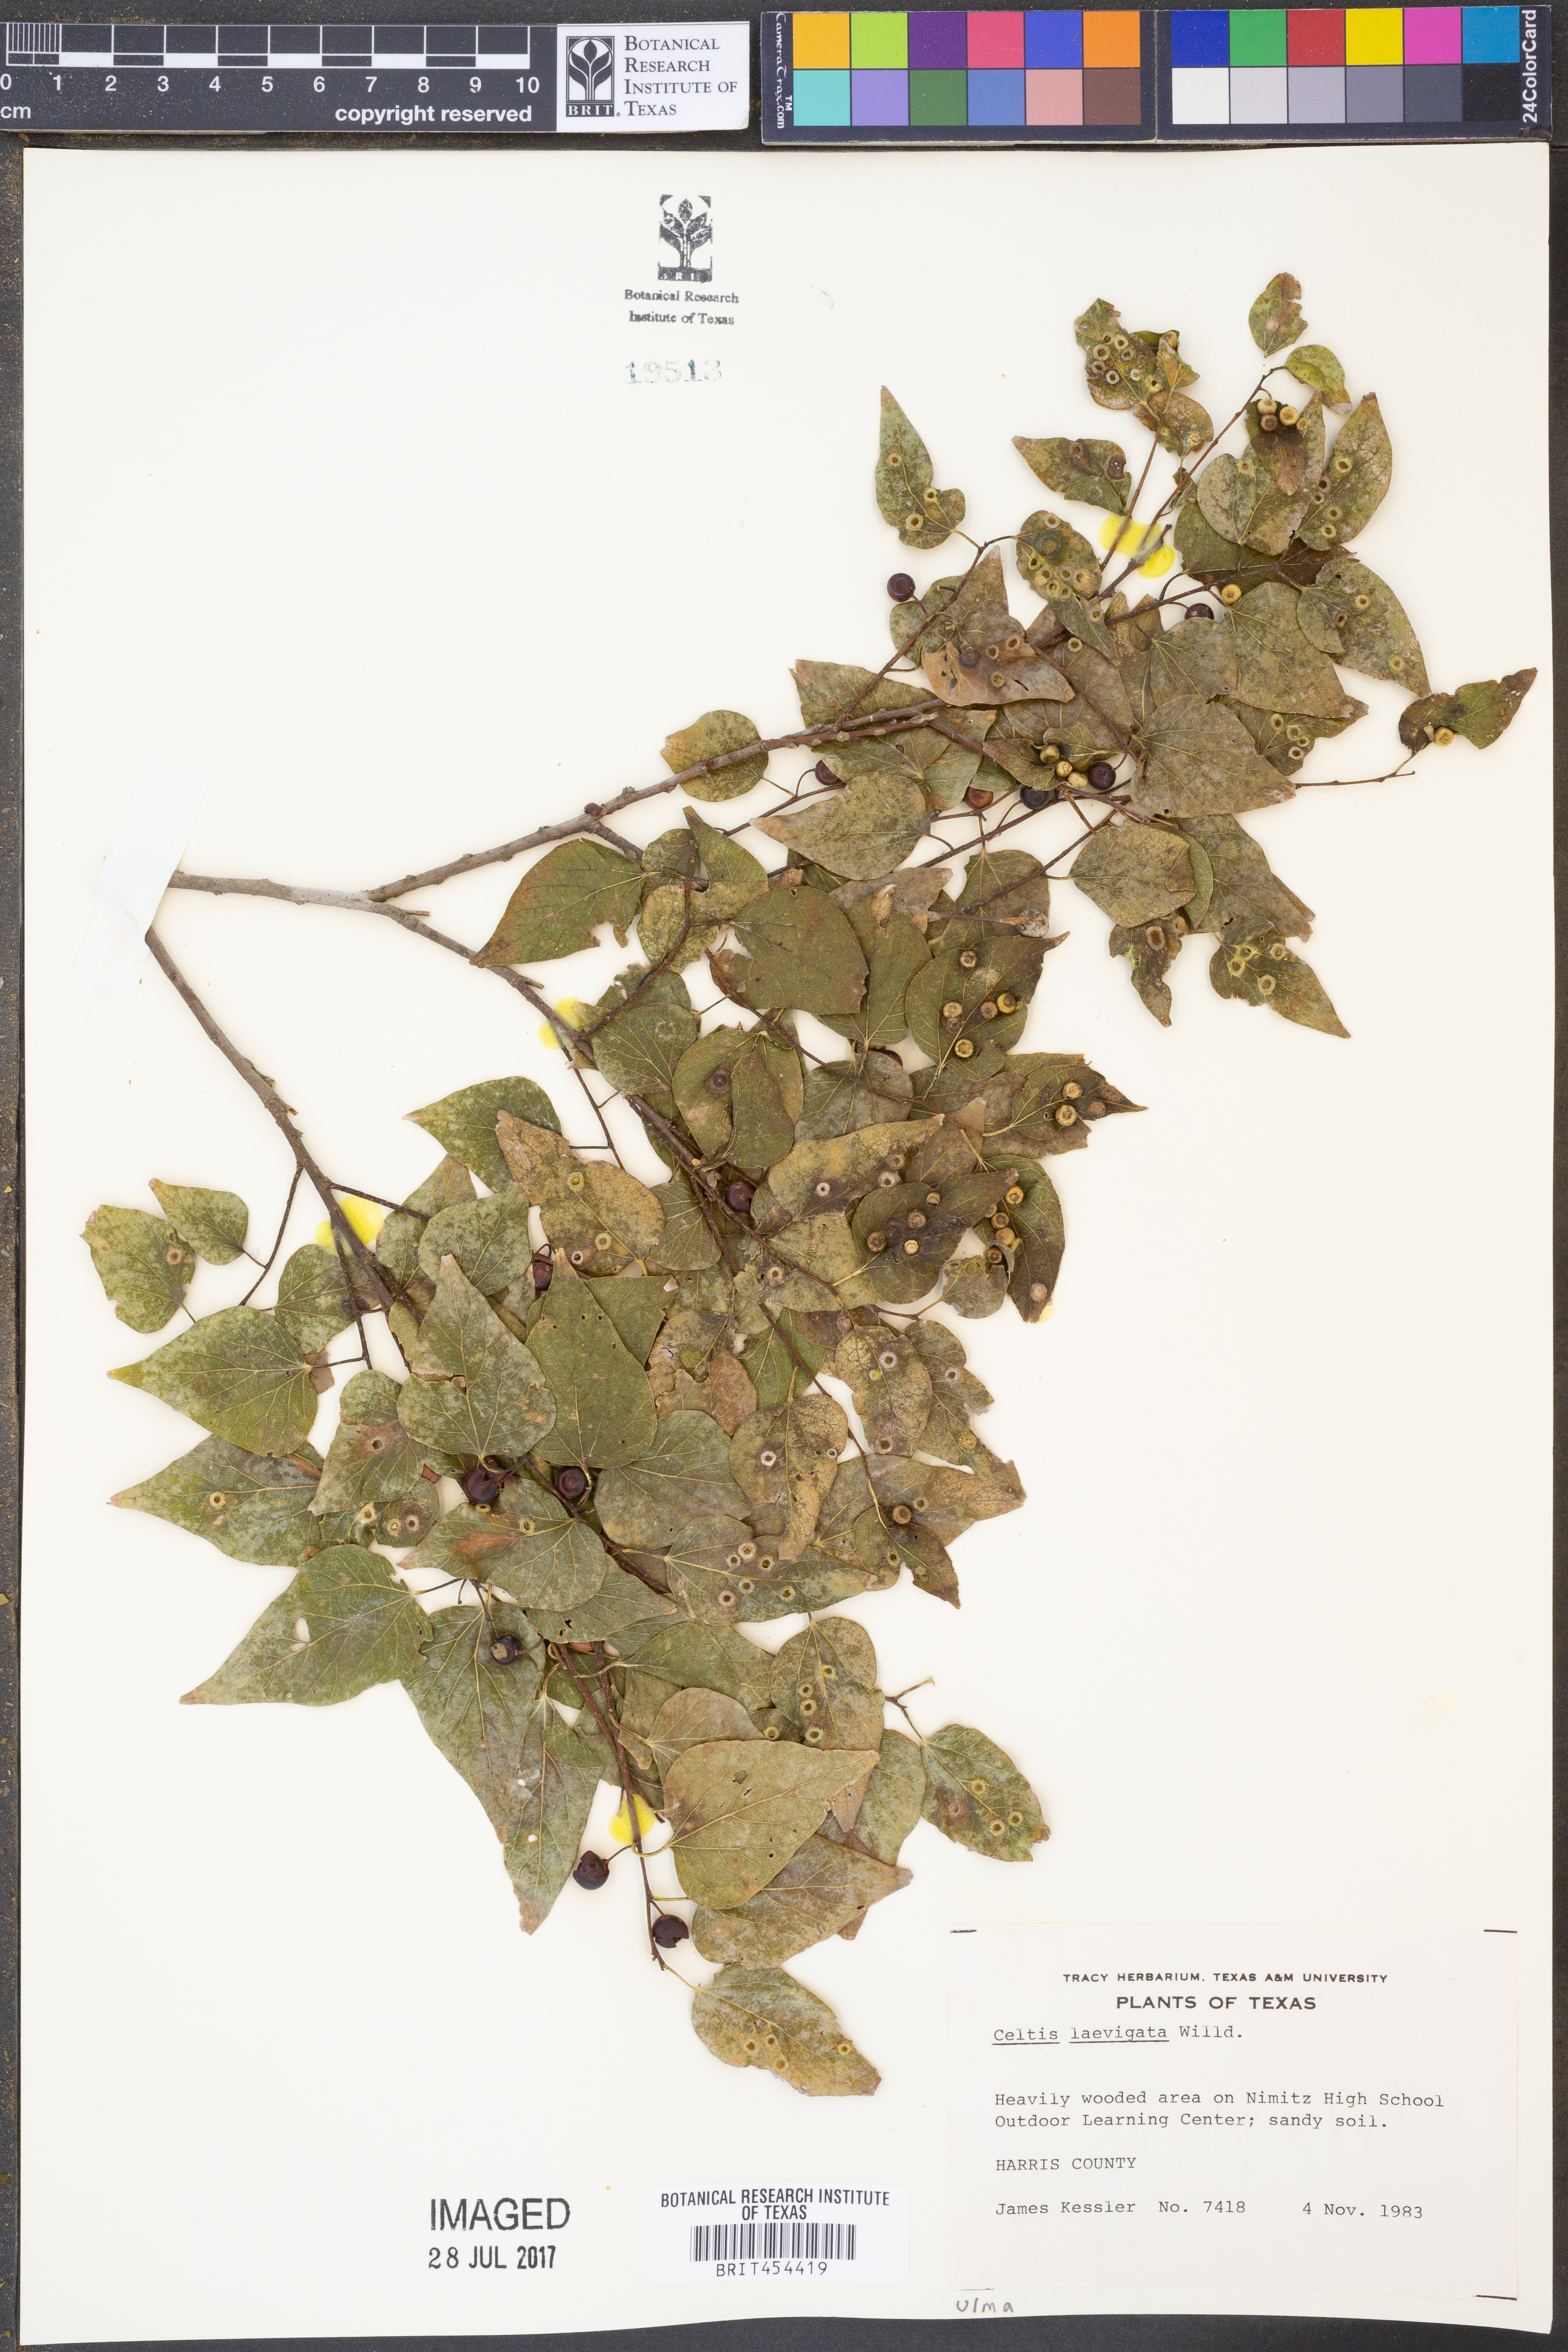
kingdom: Plantae
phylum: Tracheophyta
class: Magnoliopsida
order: Rosales
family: Cannabaceae
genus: Celtis
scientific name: Celtis laevigata
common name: Sugarberry
